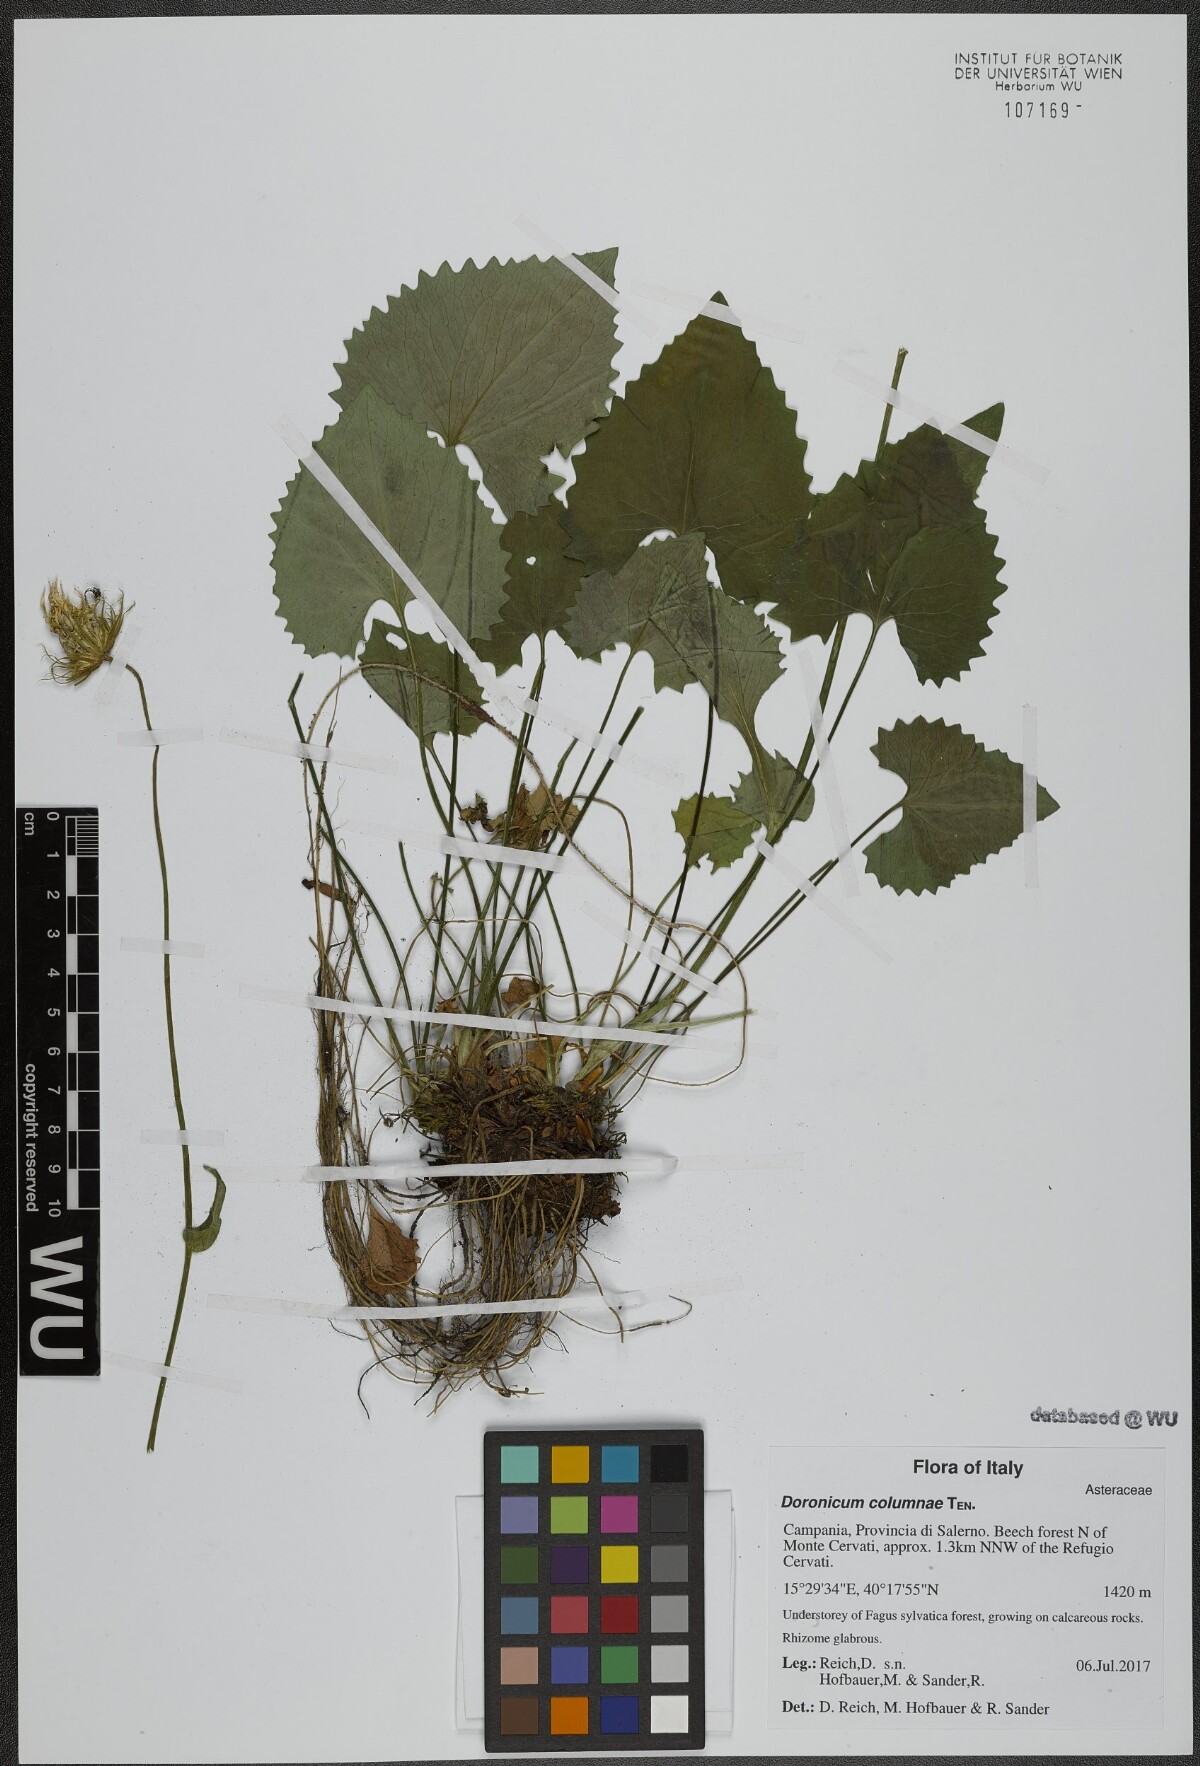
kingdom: Plantae
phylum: Tracheophyta
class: Magnoliopsida
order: Asterales
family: Asteraceae
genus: Doronicum
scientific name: Doronicum columnae
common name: Eastern leopard's-bane
